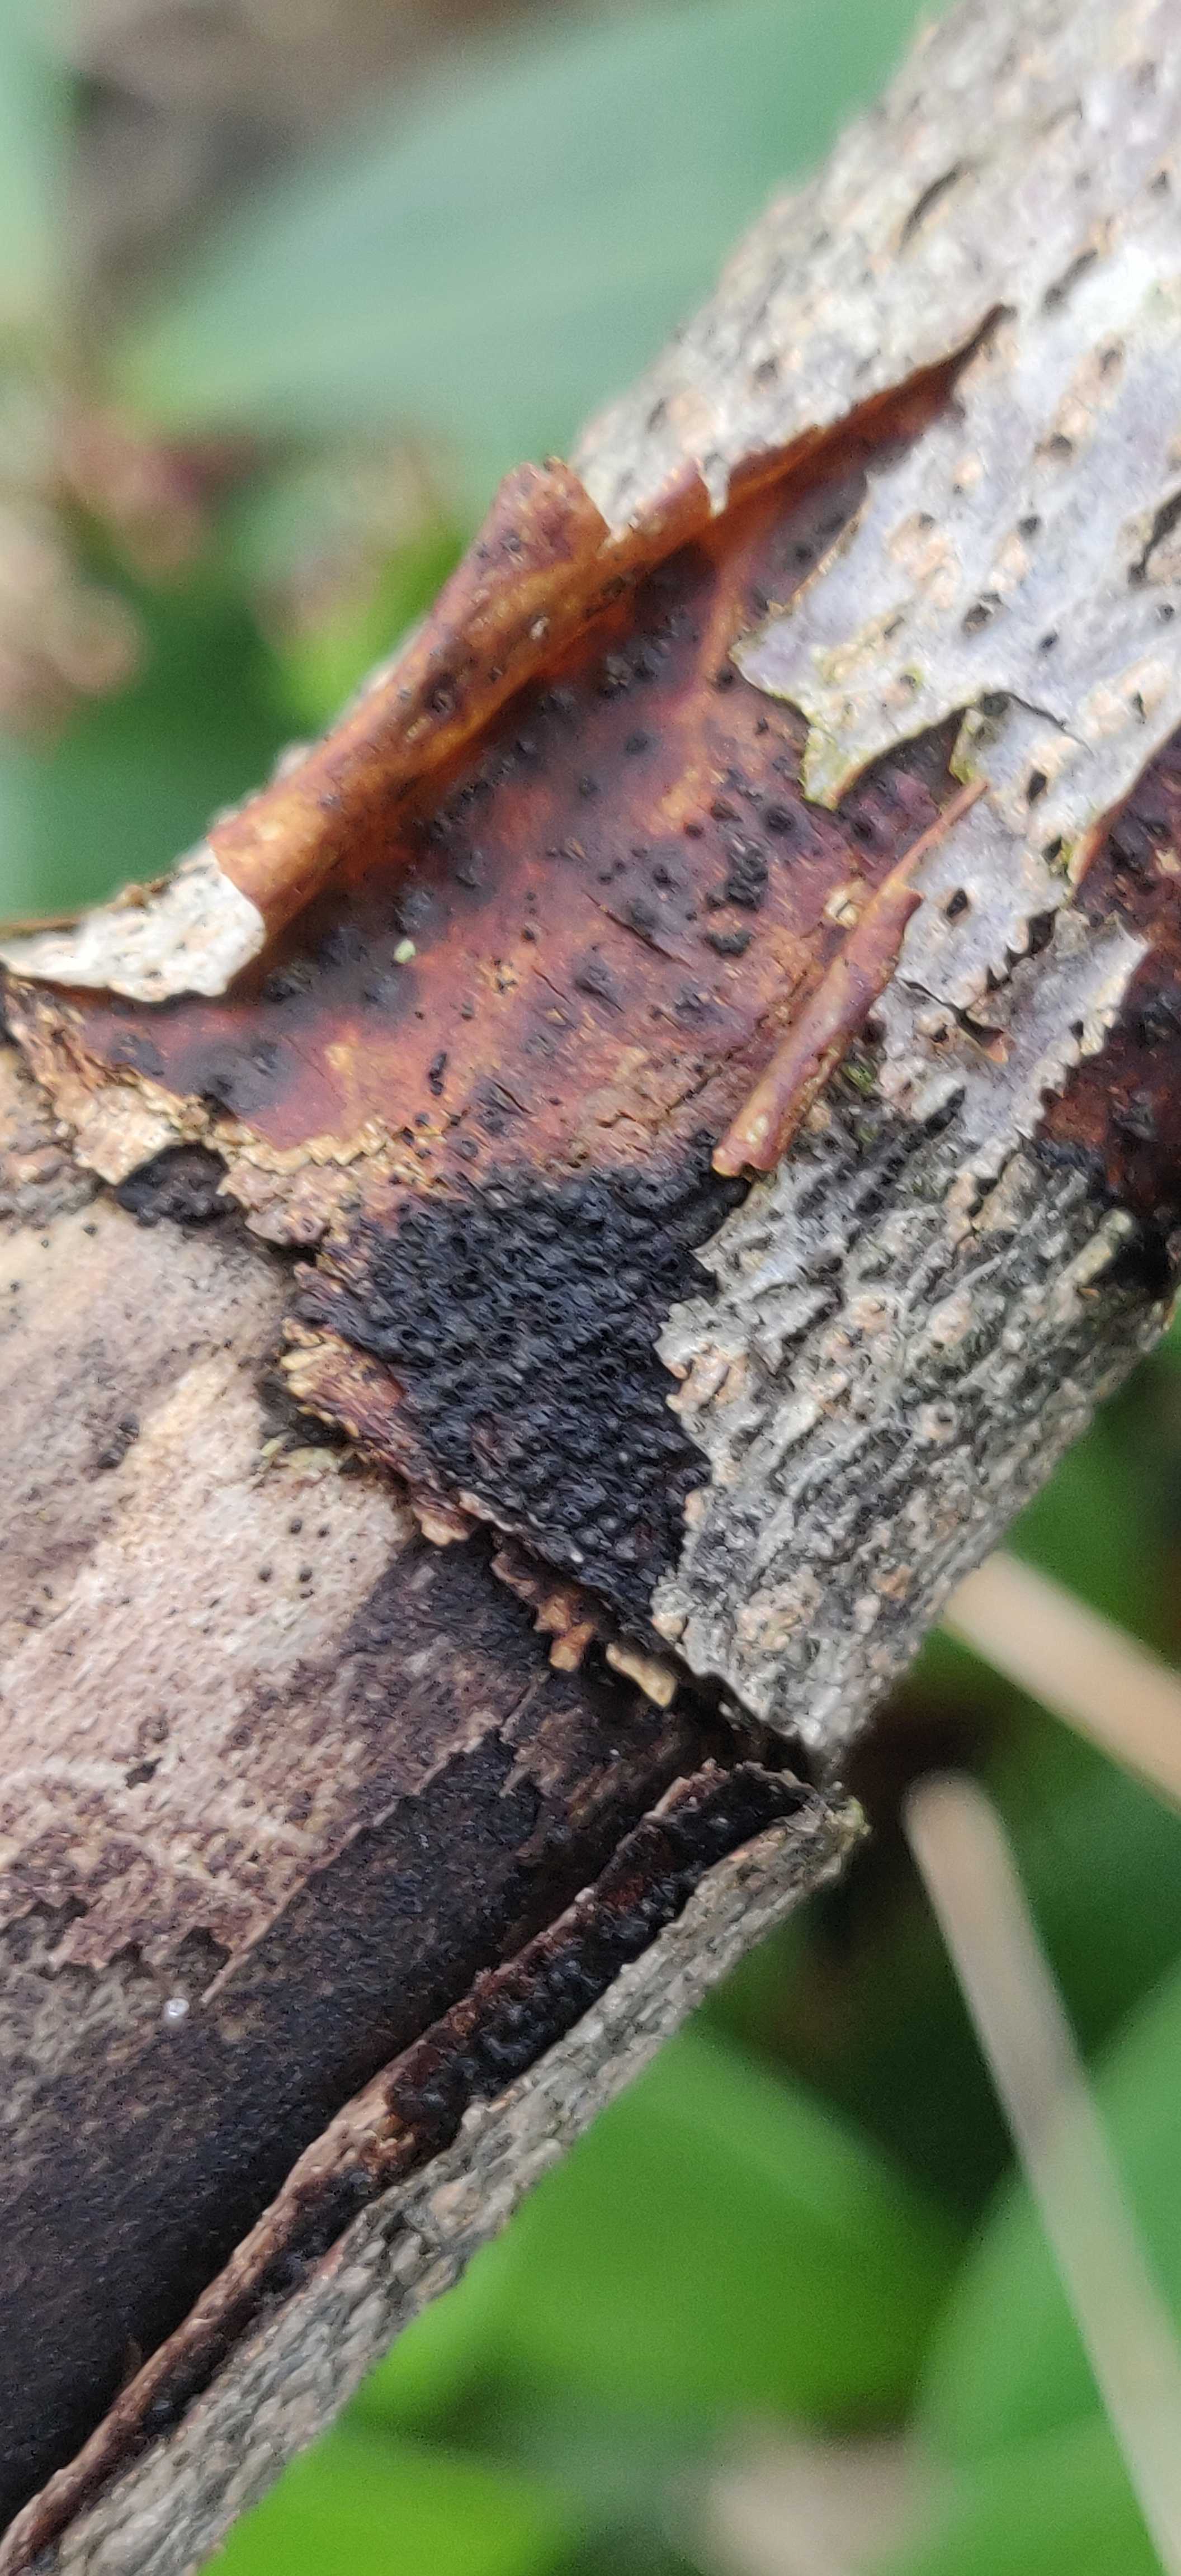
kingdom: Fungi
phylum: Ascomycota
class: Sordariomycetes
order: Xylariales
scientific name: Xylariales
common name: stødsvampordenen
